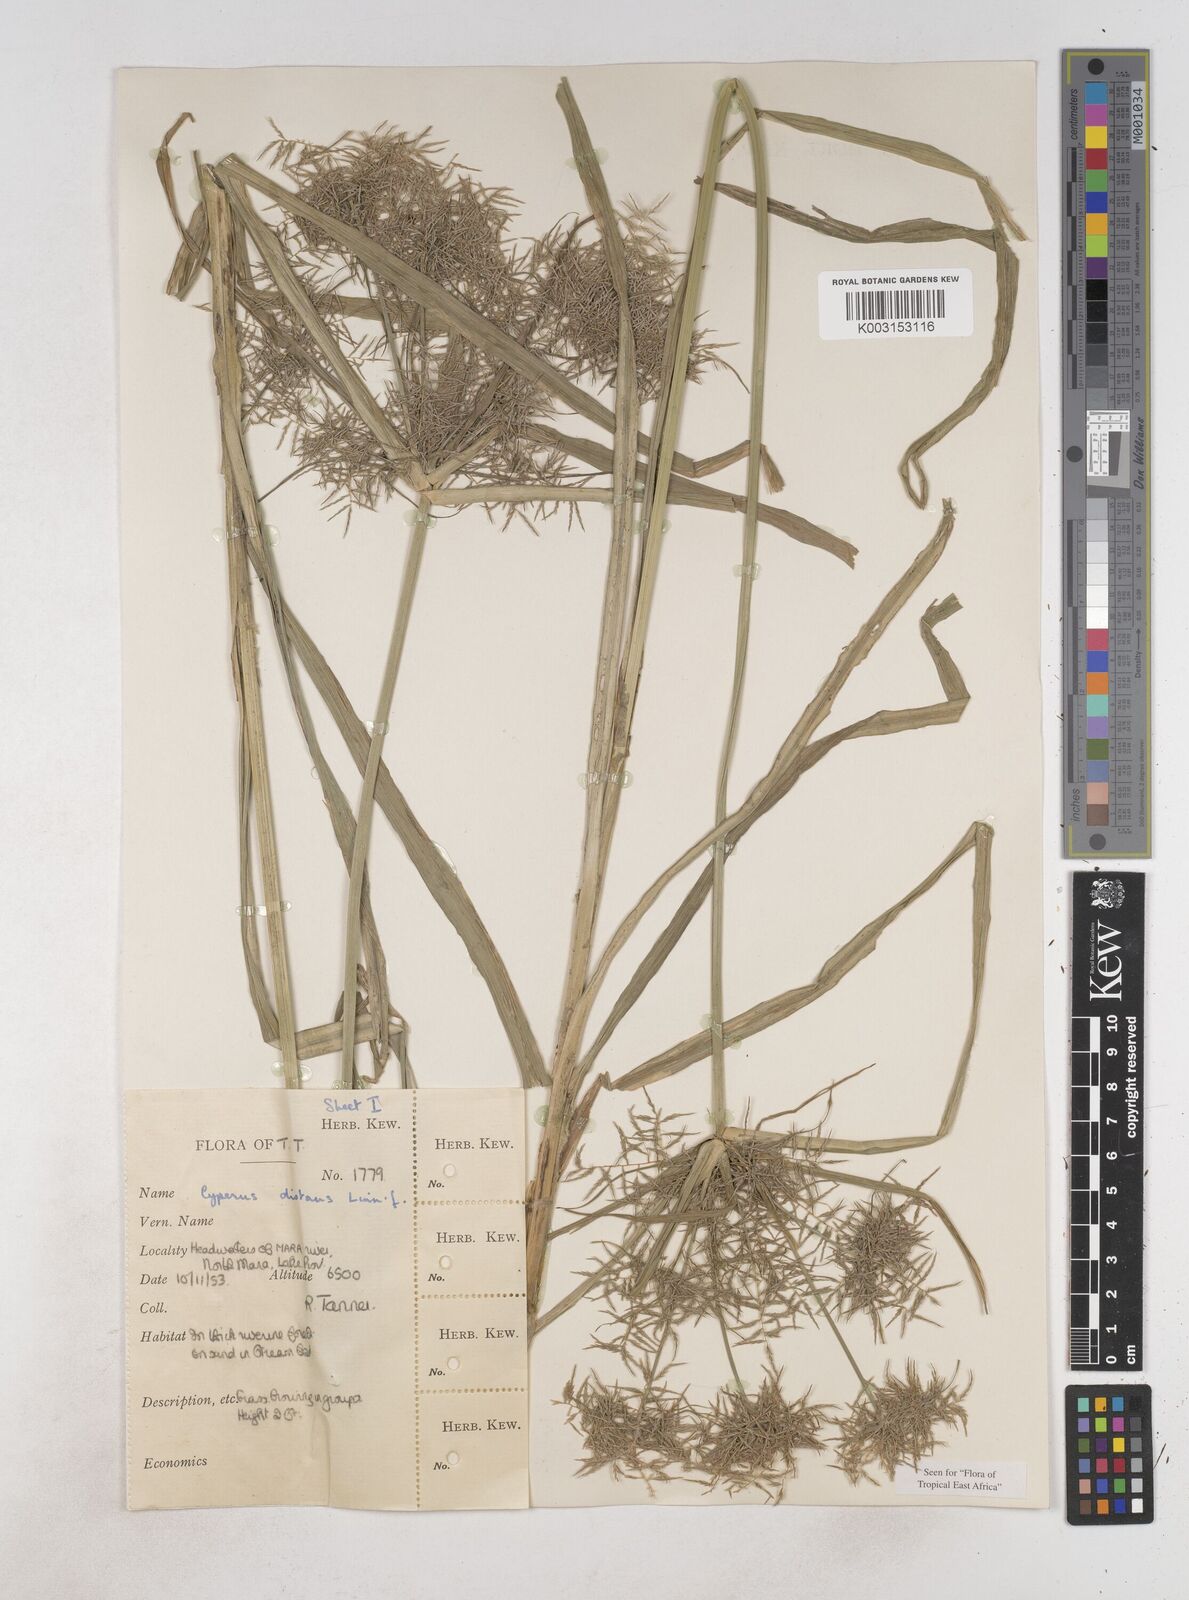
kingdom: Plantae
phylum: Tracheophyta
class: Liliopsida
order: Poales
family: Cyperaceae
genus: Cyperus
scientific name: Cyperus distans
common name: Slender cyperus
